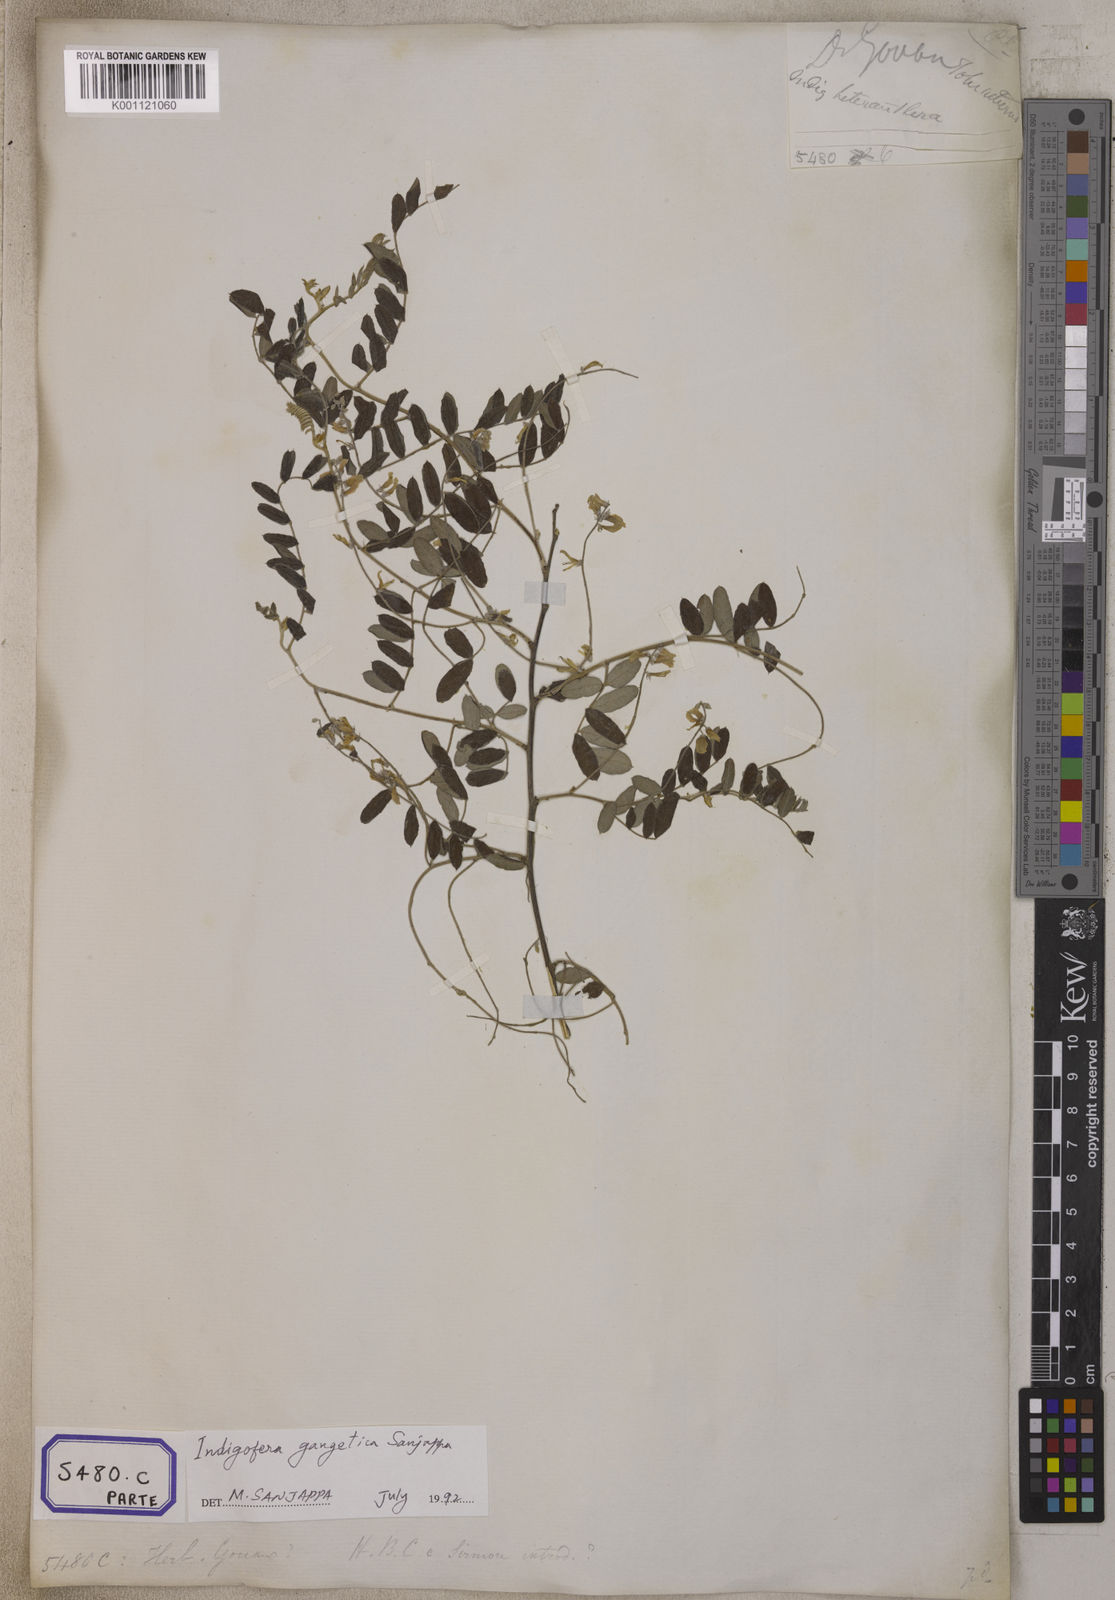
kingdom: Plantae
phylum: Tracheophyta
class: Magnoliopsida
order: Fabales
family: Fabaceae
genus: Indigofera
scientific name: Indigofera
